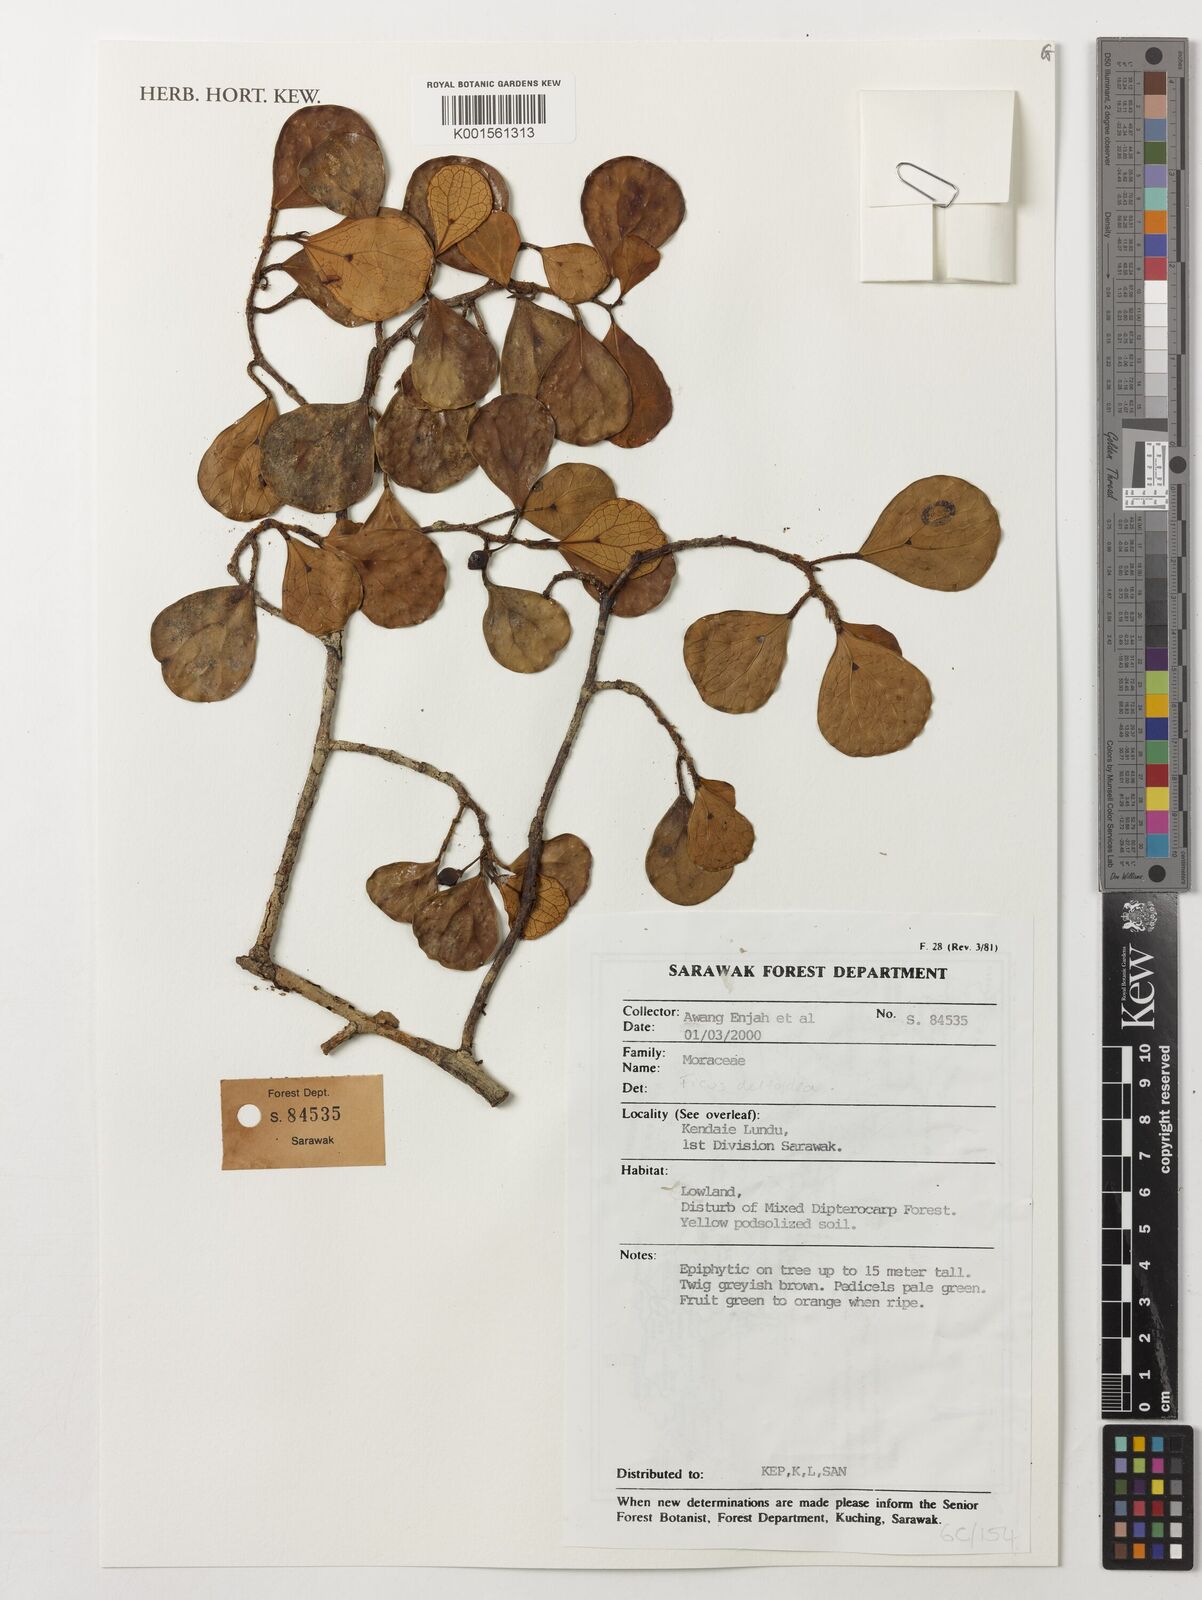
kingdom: Plantae
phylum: Tracheophyta
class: Magnoliopsida
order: Rosales
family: Moraceae
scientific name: Moraceae
